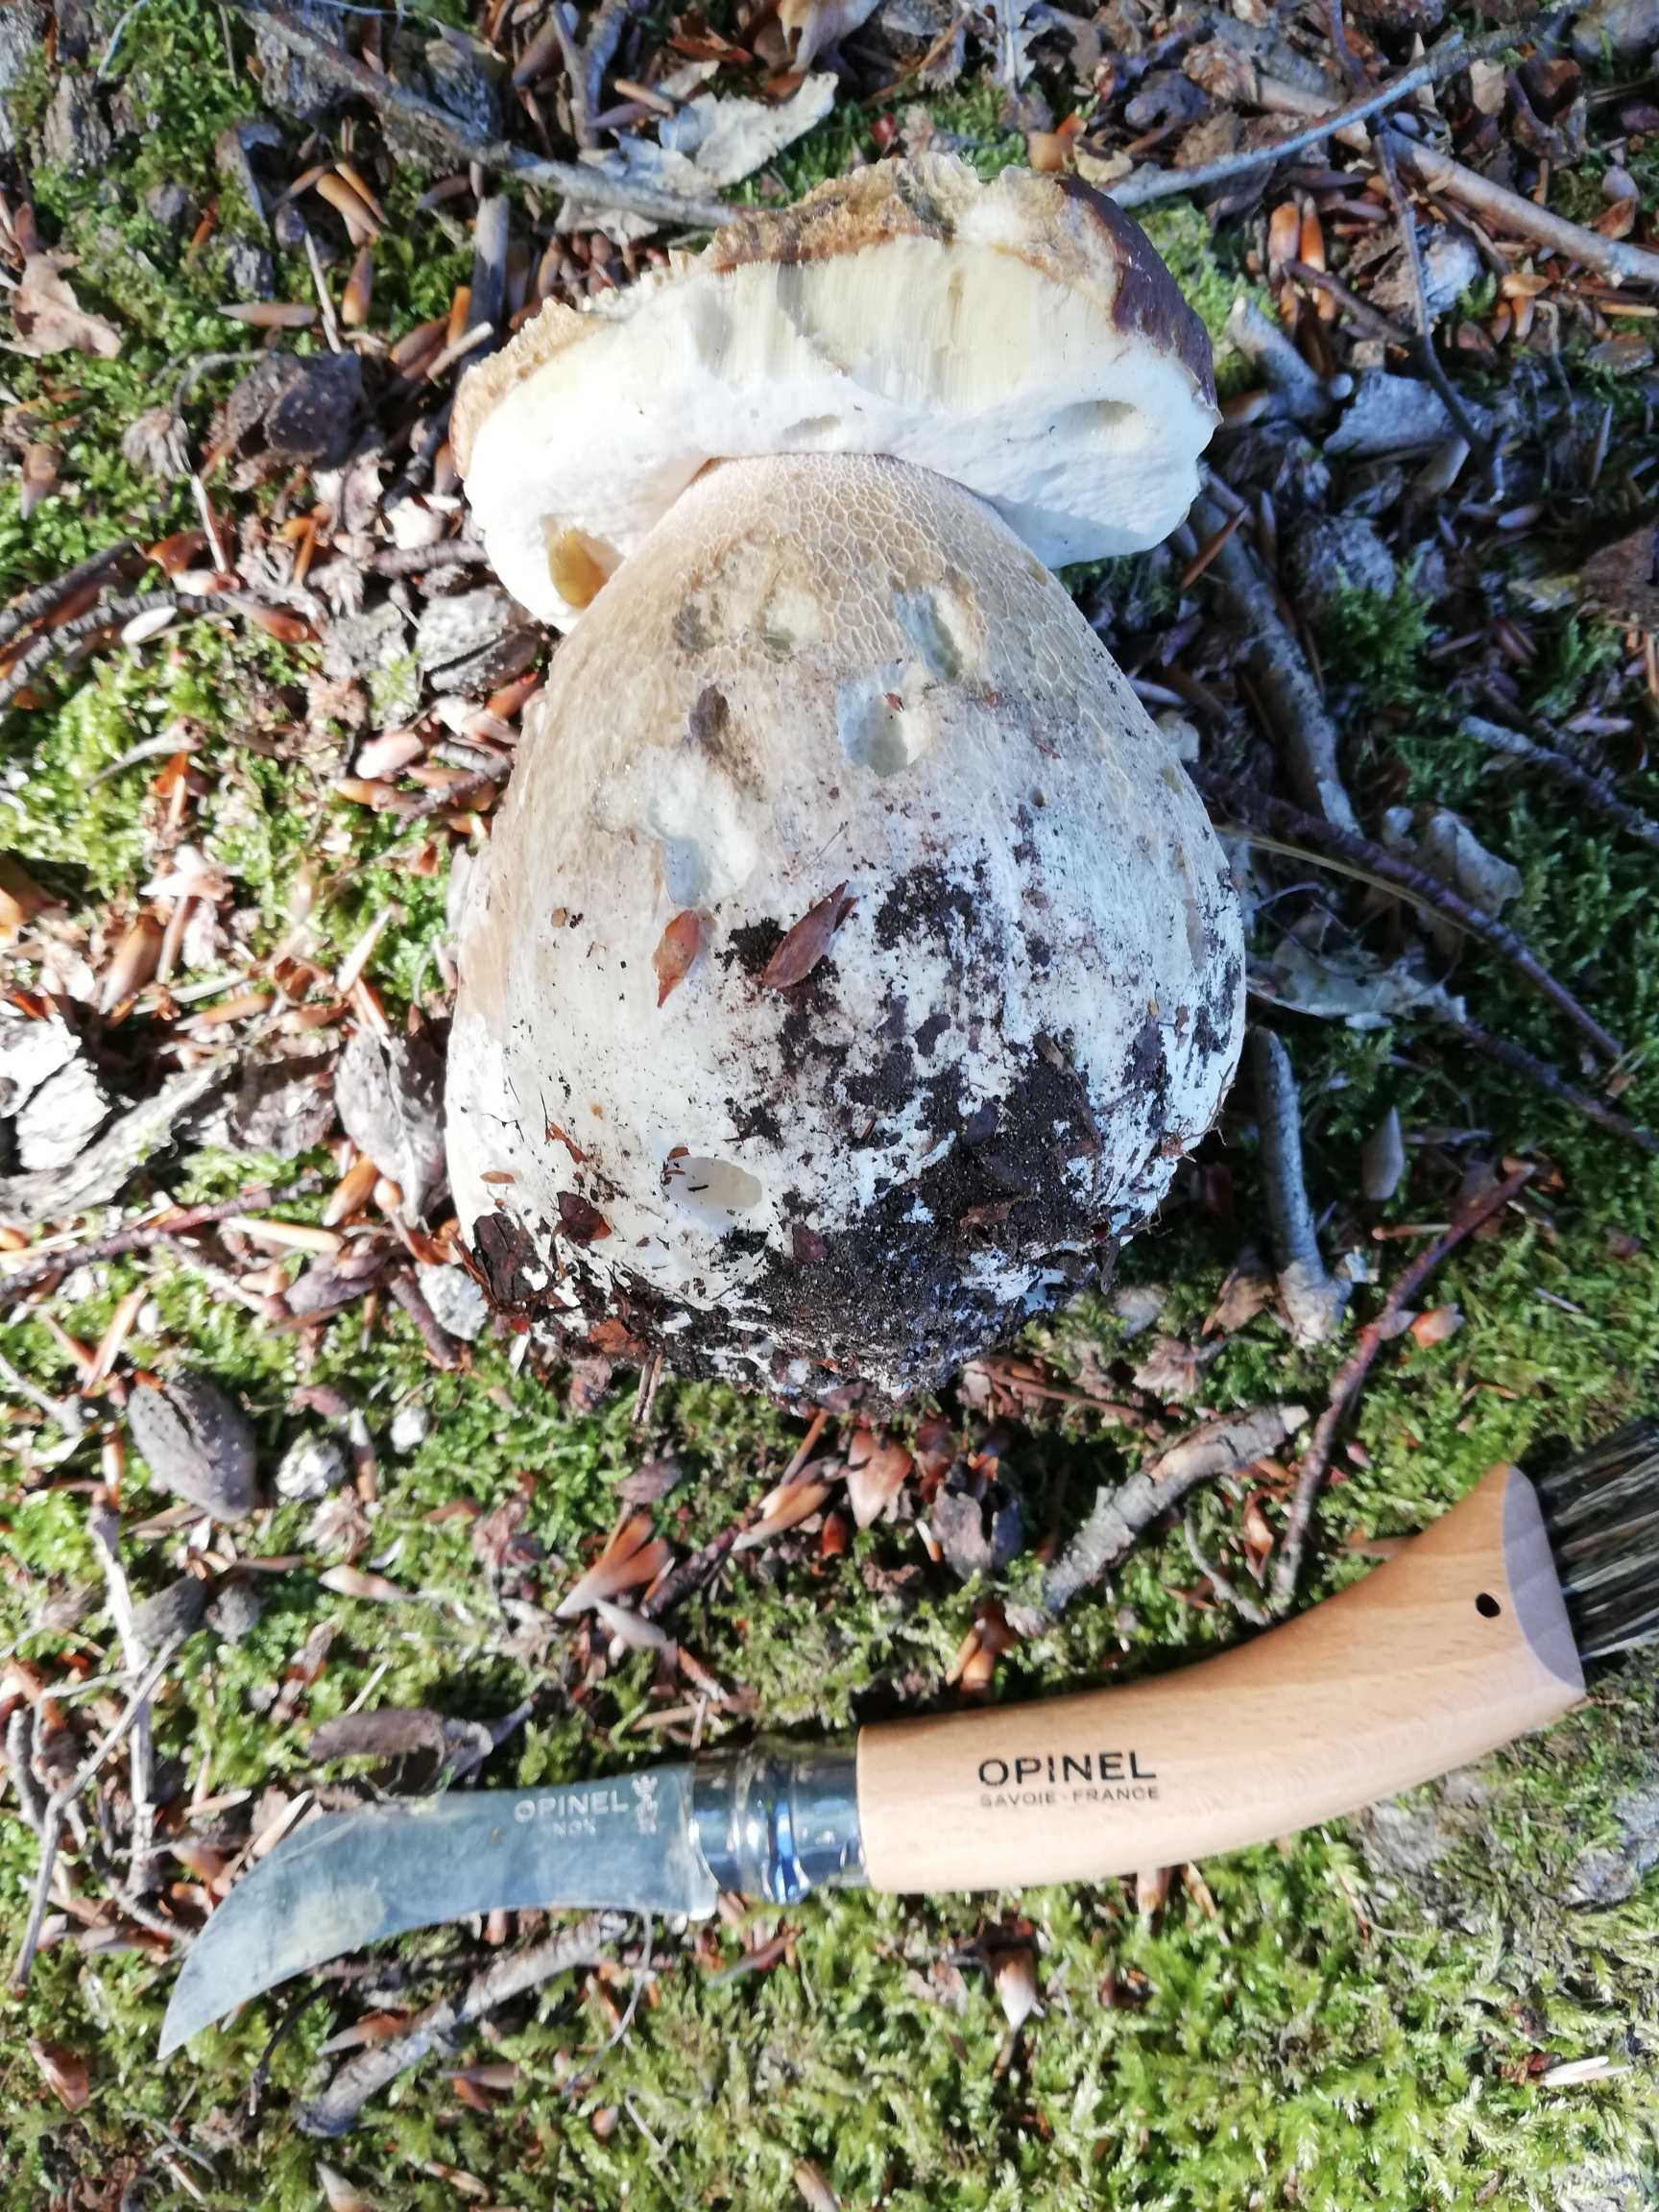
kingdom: Fungi
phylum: Basidiomycota
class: Agaricomycetes
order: Boletales
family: Boletaceae
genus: Boletus
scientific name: Boletus edulis
